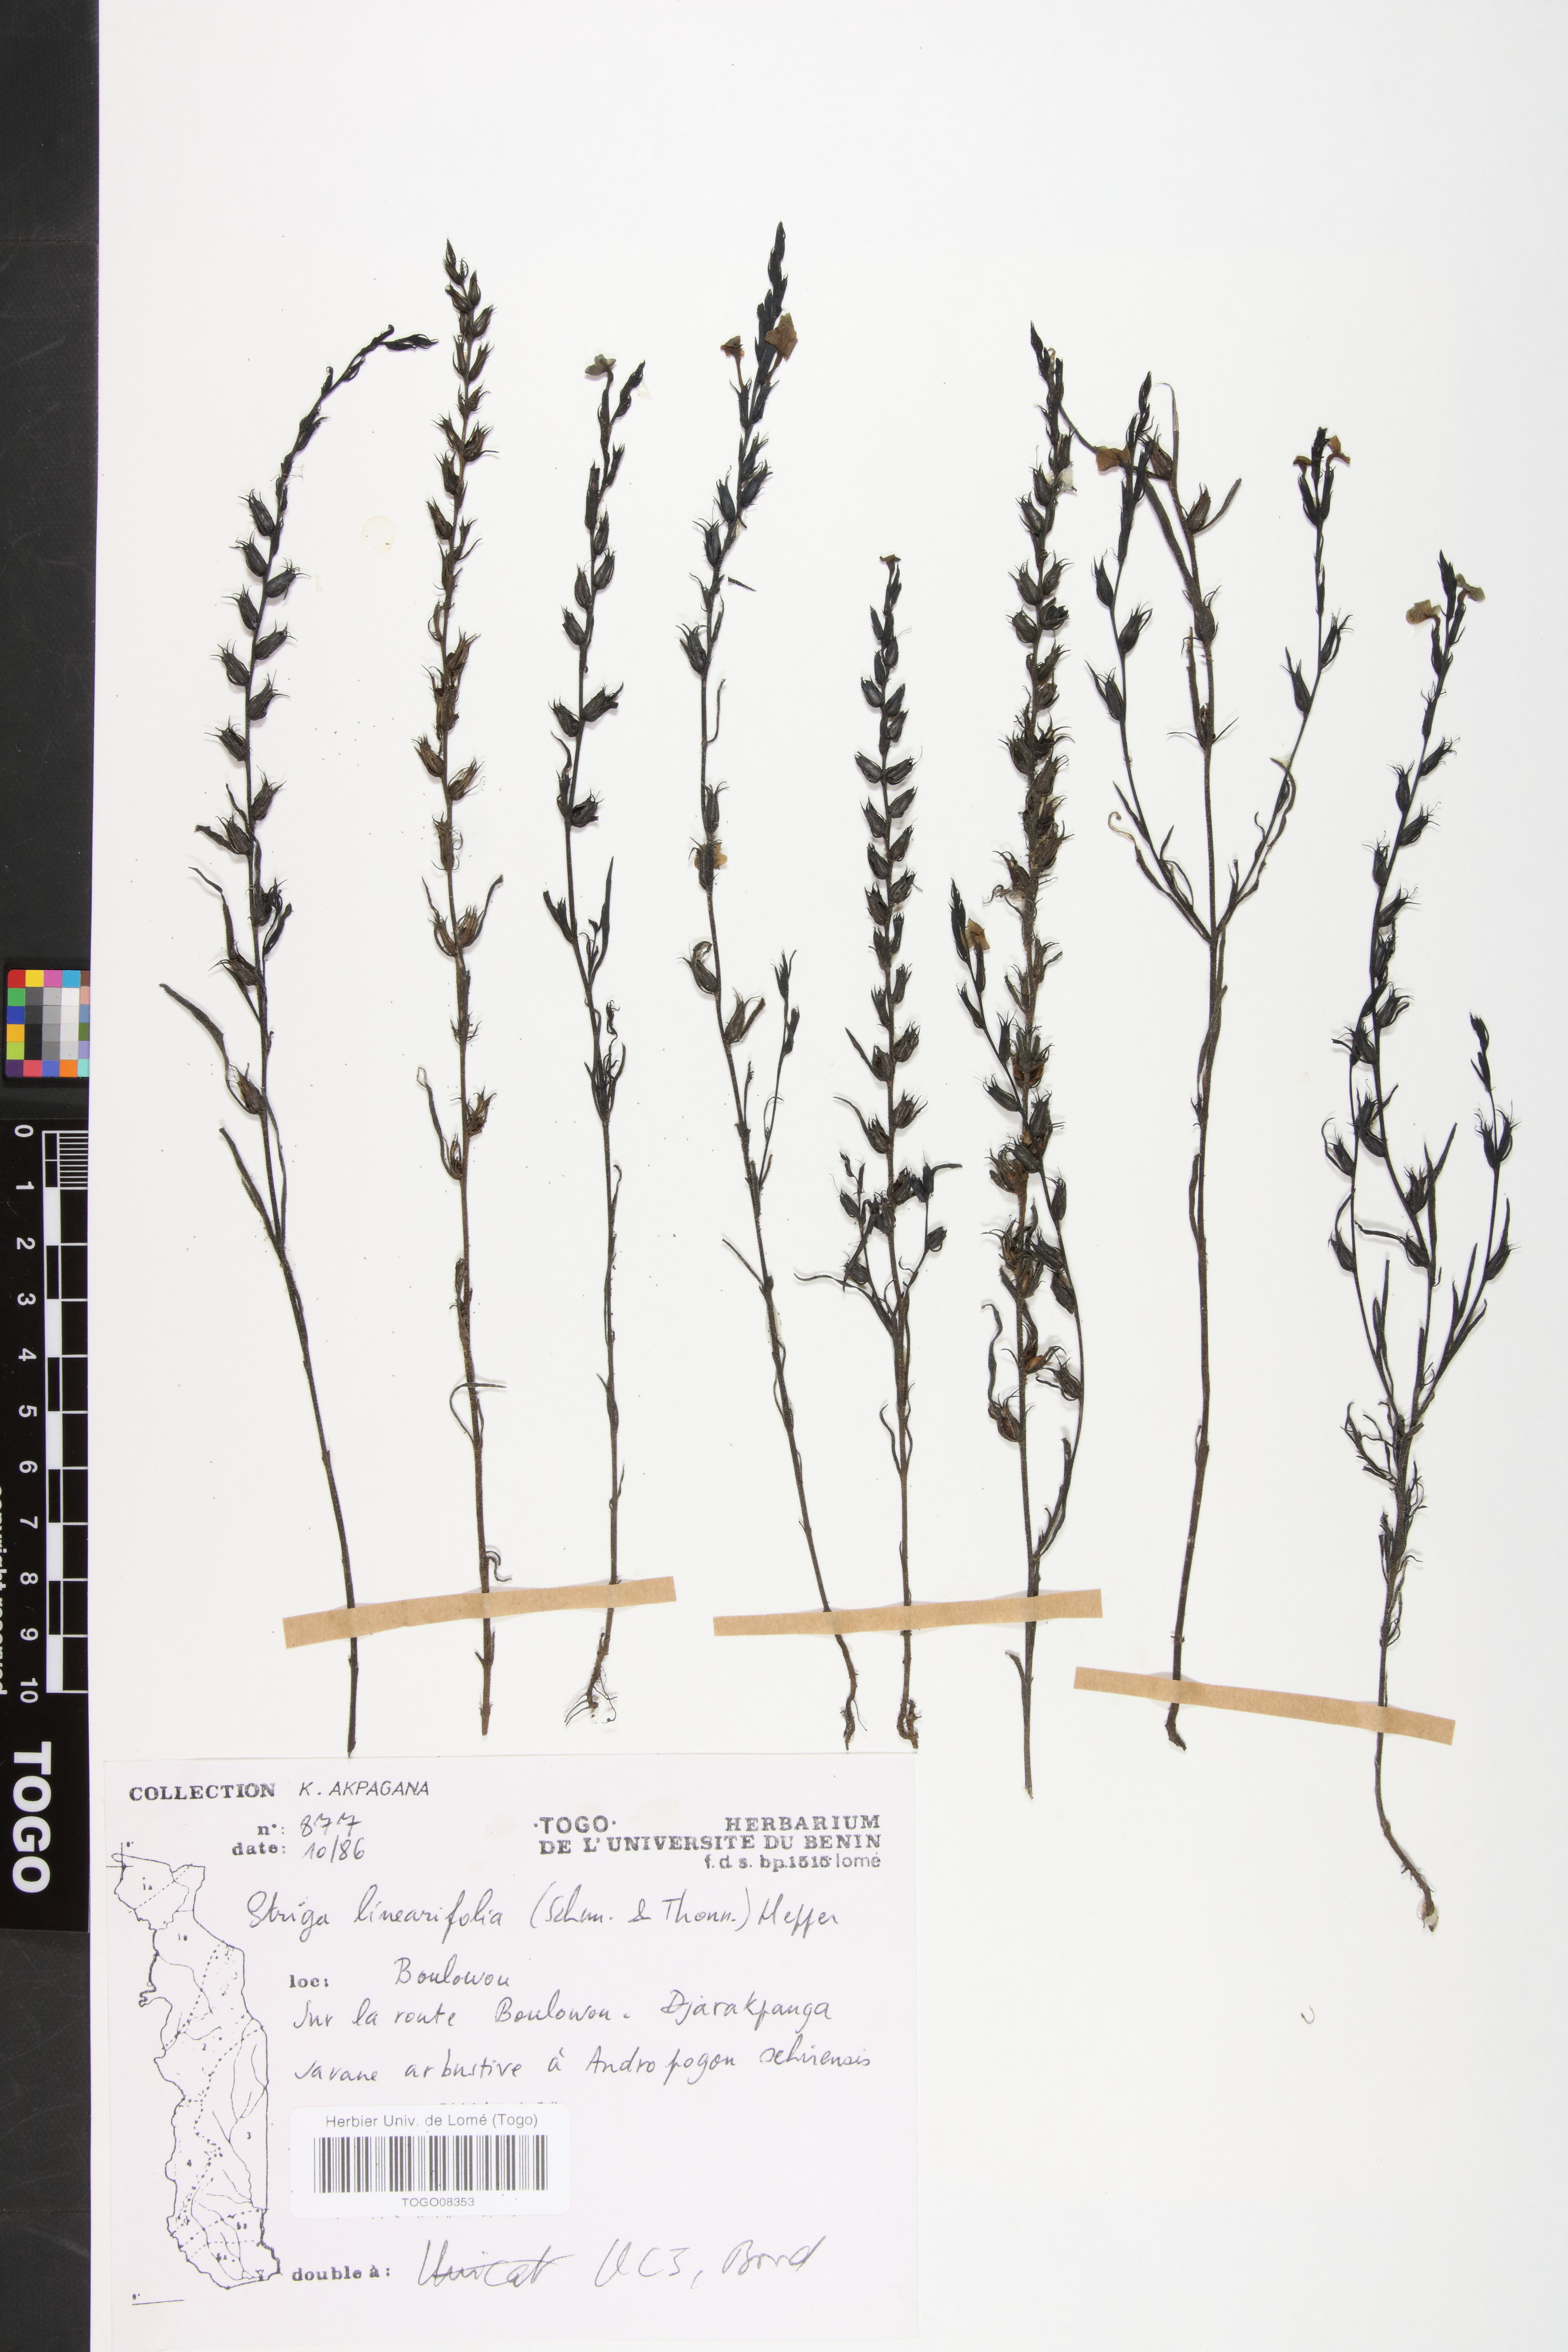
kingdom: Plantae
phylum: Tracheophyta
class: Magnoliopsida
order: Lamiales
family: Orobanchaceae
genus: Striga
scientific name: Striga linearifolia
